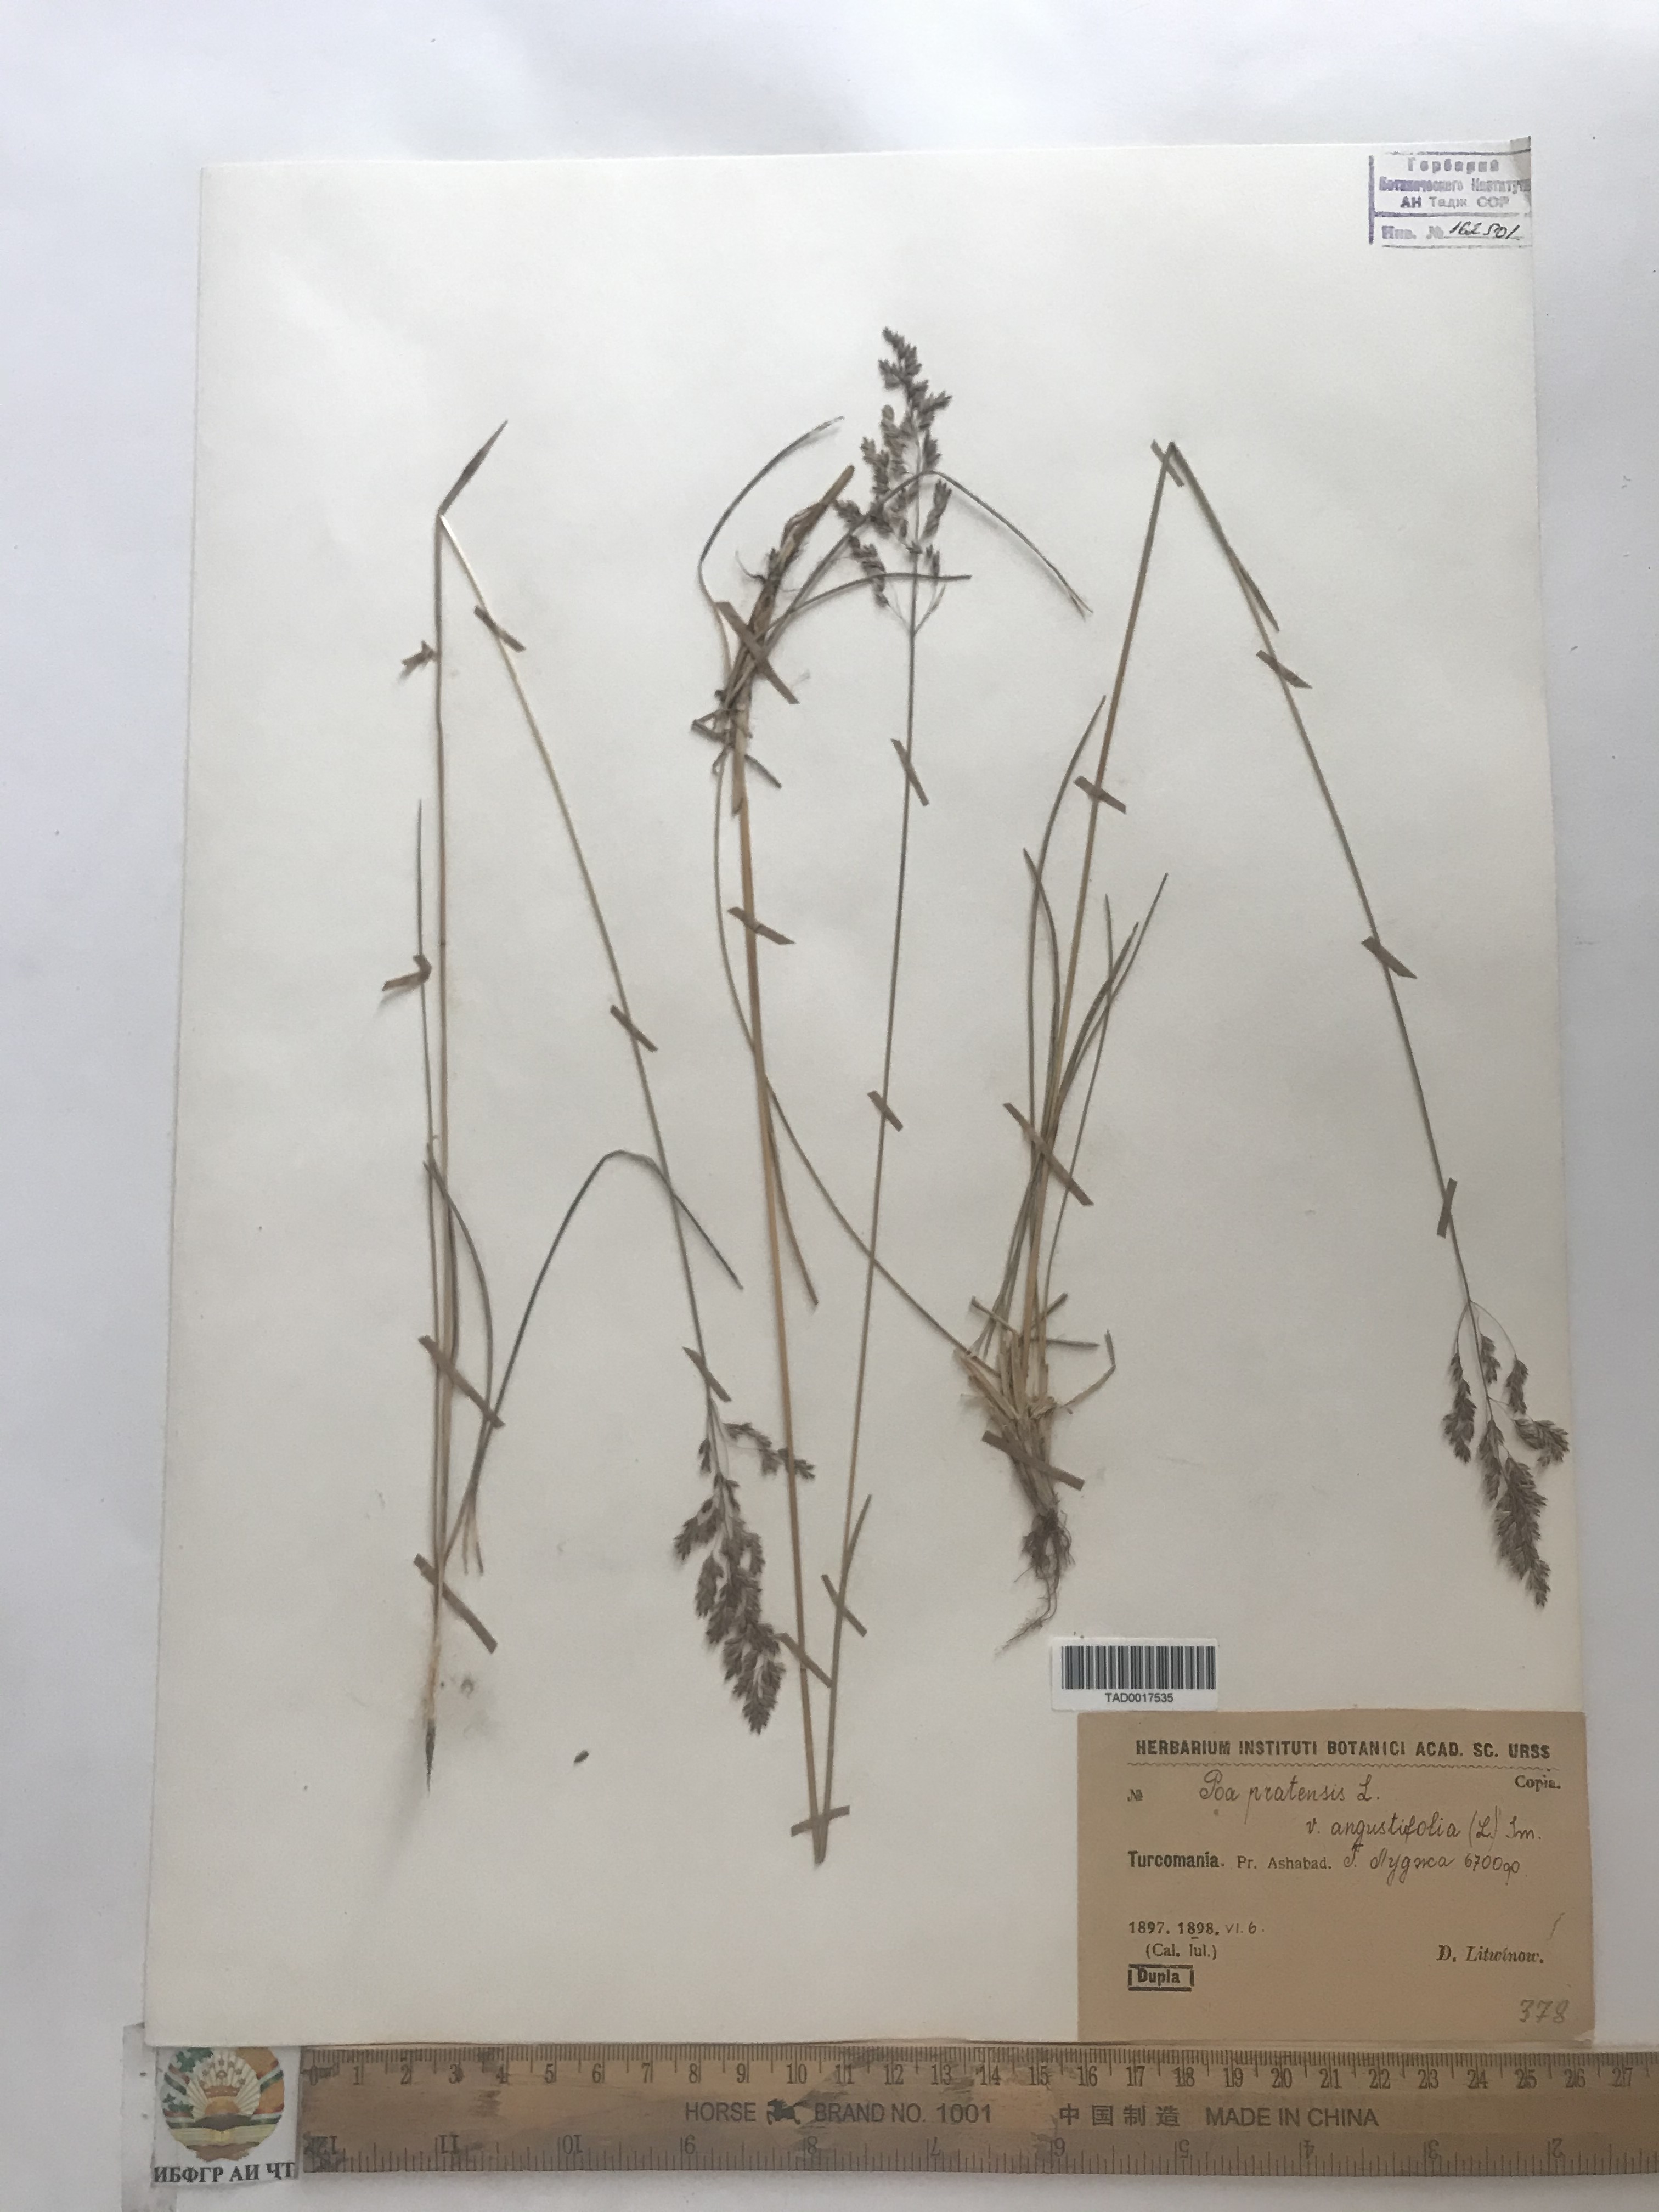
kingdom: Plantae
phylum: Tracheophyta
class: Liliopsida
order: Poales
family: Poaceae
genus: Poa
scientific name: Poa pratensis
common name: Kentucky bluegrass
